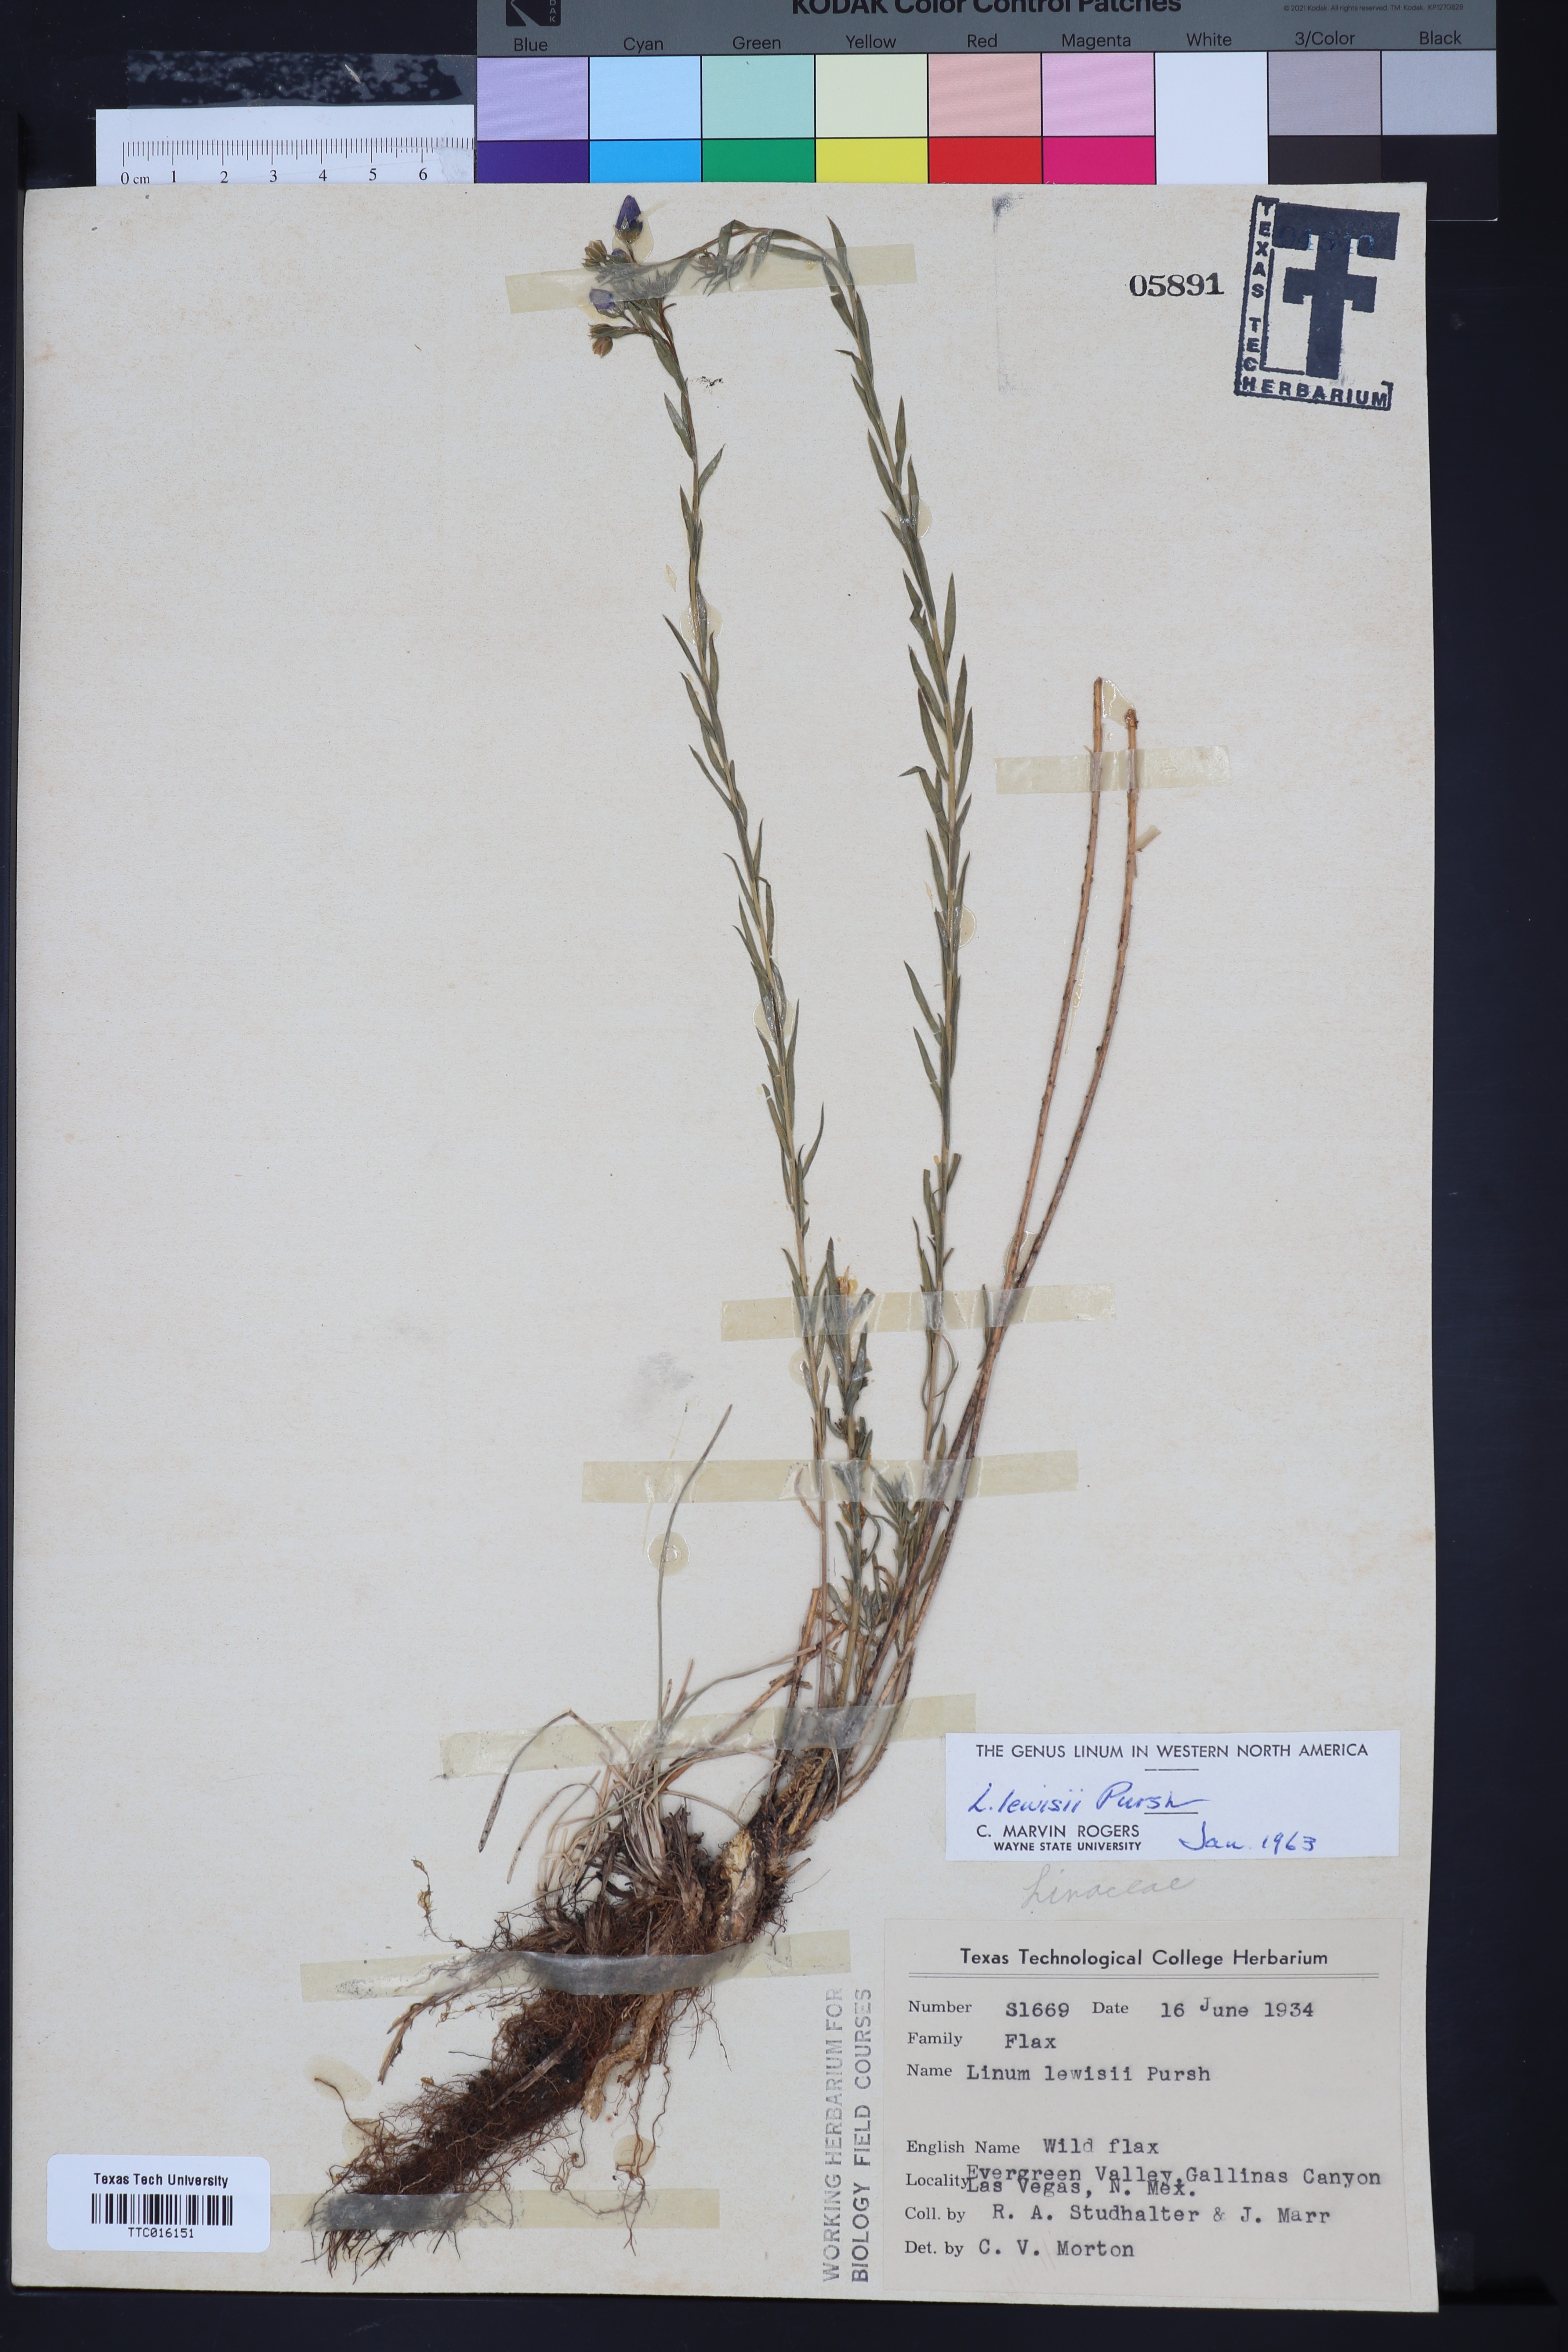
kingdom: Plantae
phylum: Tracheophyta
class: Magnoliopsida
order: Malpighiales
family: Linaceae
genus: Linum
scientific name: Linum lewisii
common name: Prairie flax
